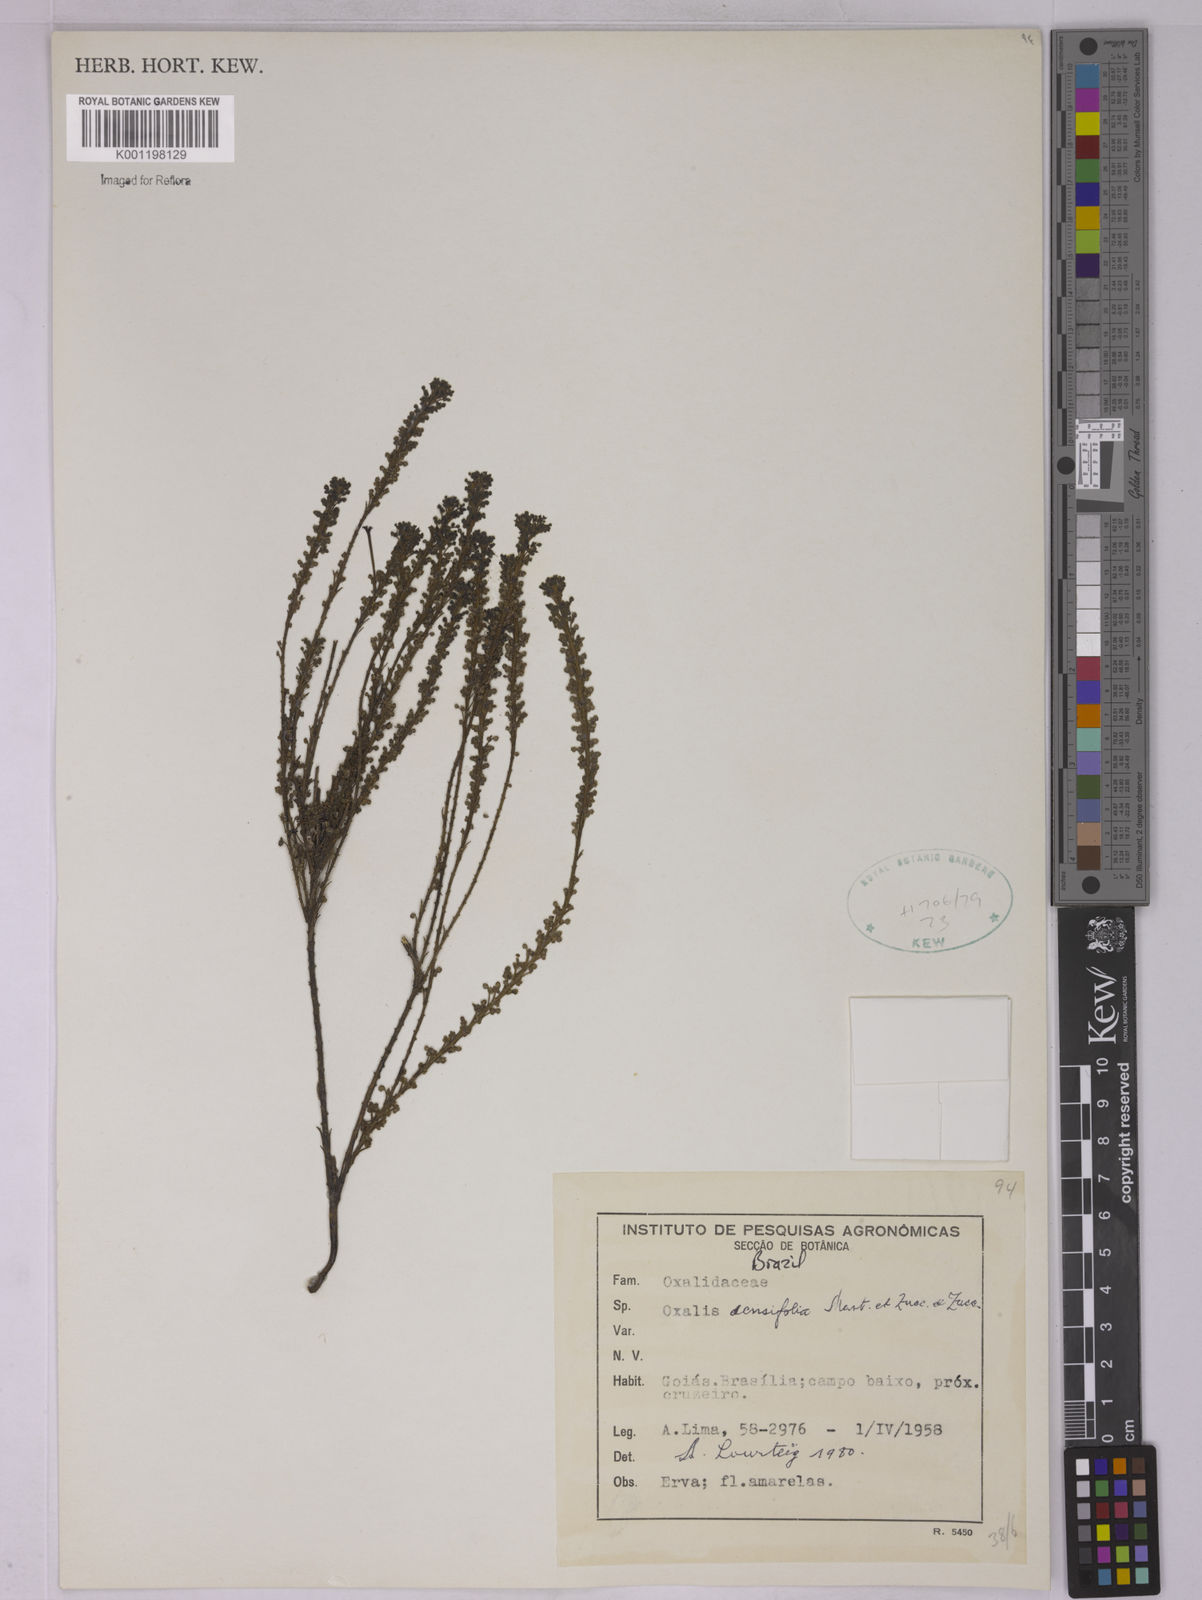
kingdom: Plantae
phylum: Tracheophyta
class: Magnoliopsida
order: Oxalidales
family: Oxalidaceae
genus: Oxalis
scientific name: Oxalis densifolia
